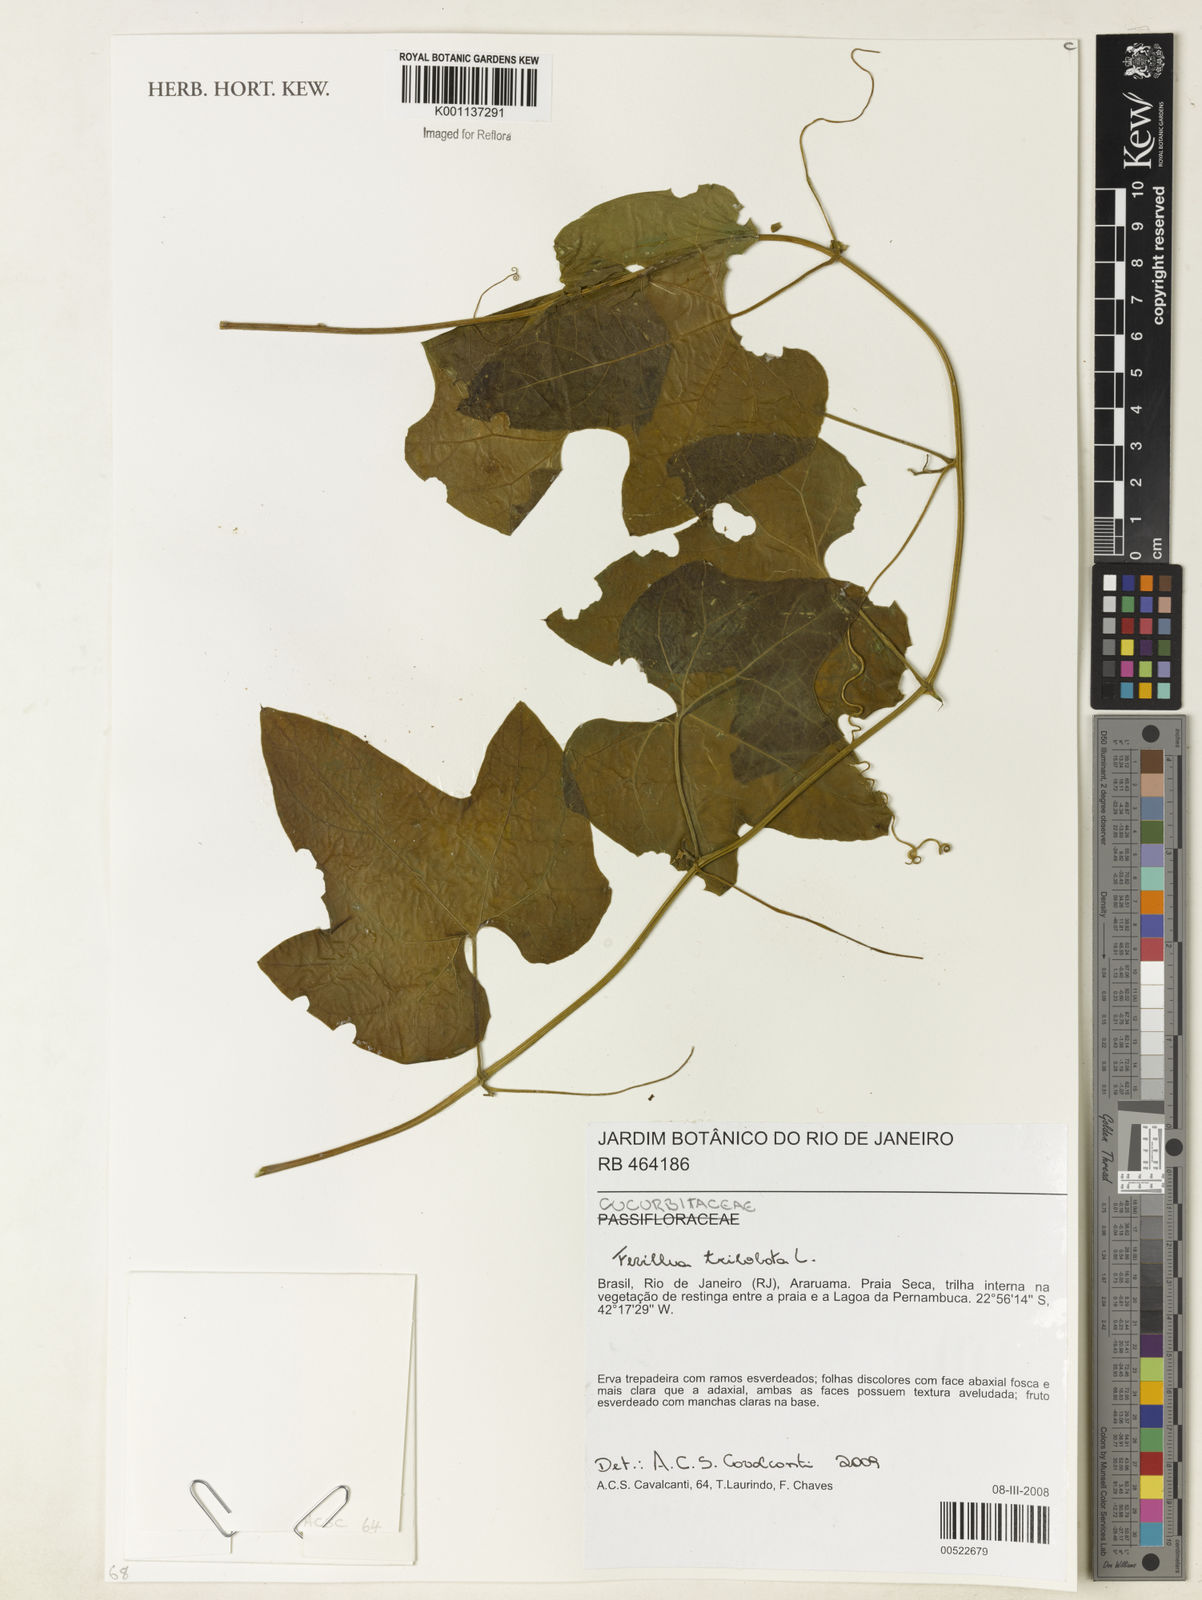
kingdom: Plantae
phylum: Tracheophyta
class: Magnoliopsida
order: Cucurbitales
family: Cucurbitaceae
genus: Fevillea
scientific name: Fevillea trilobata
